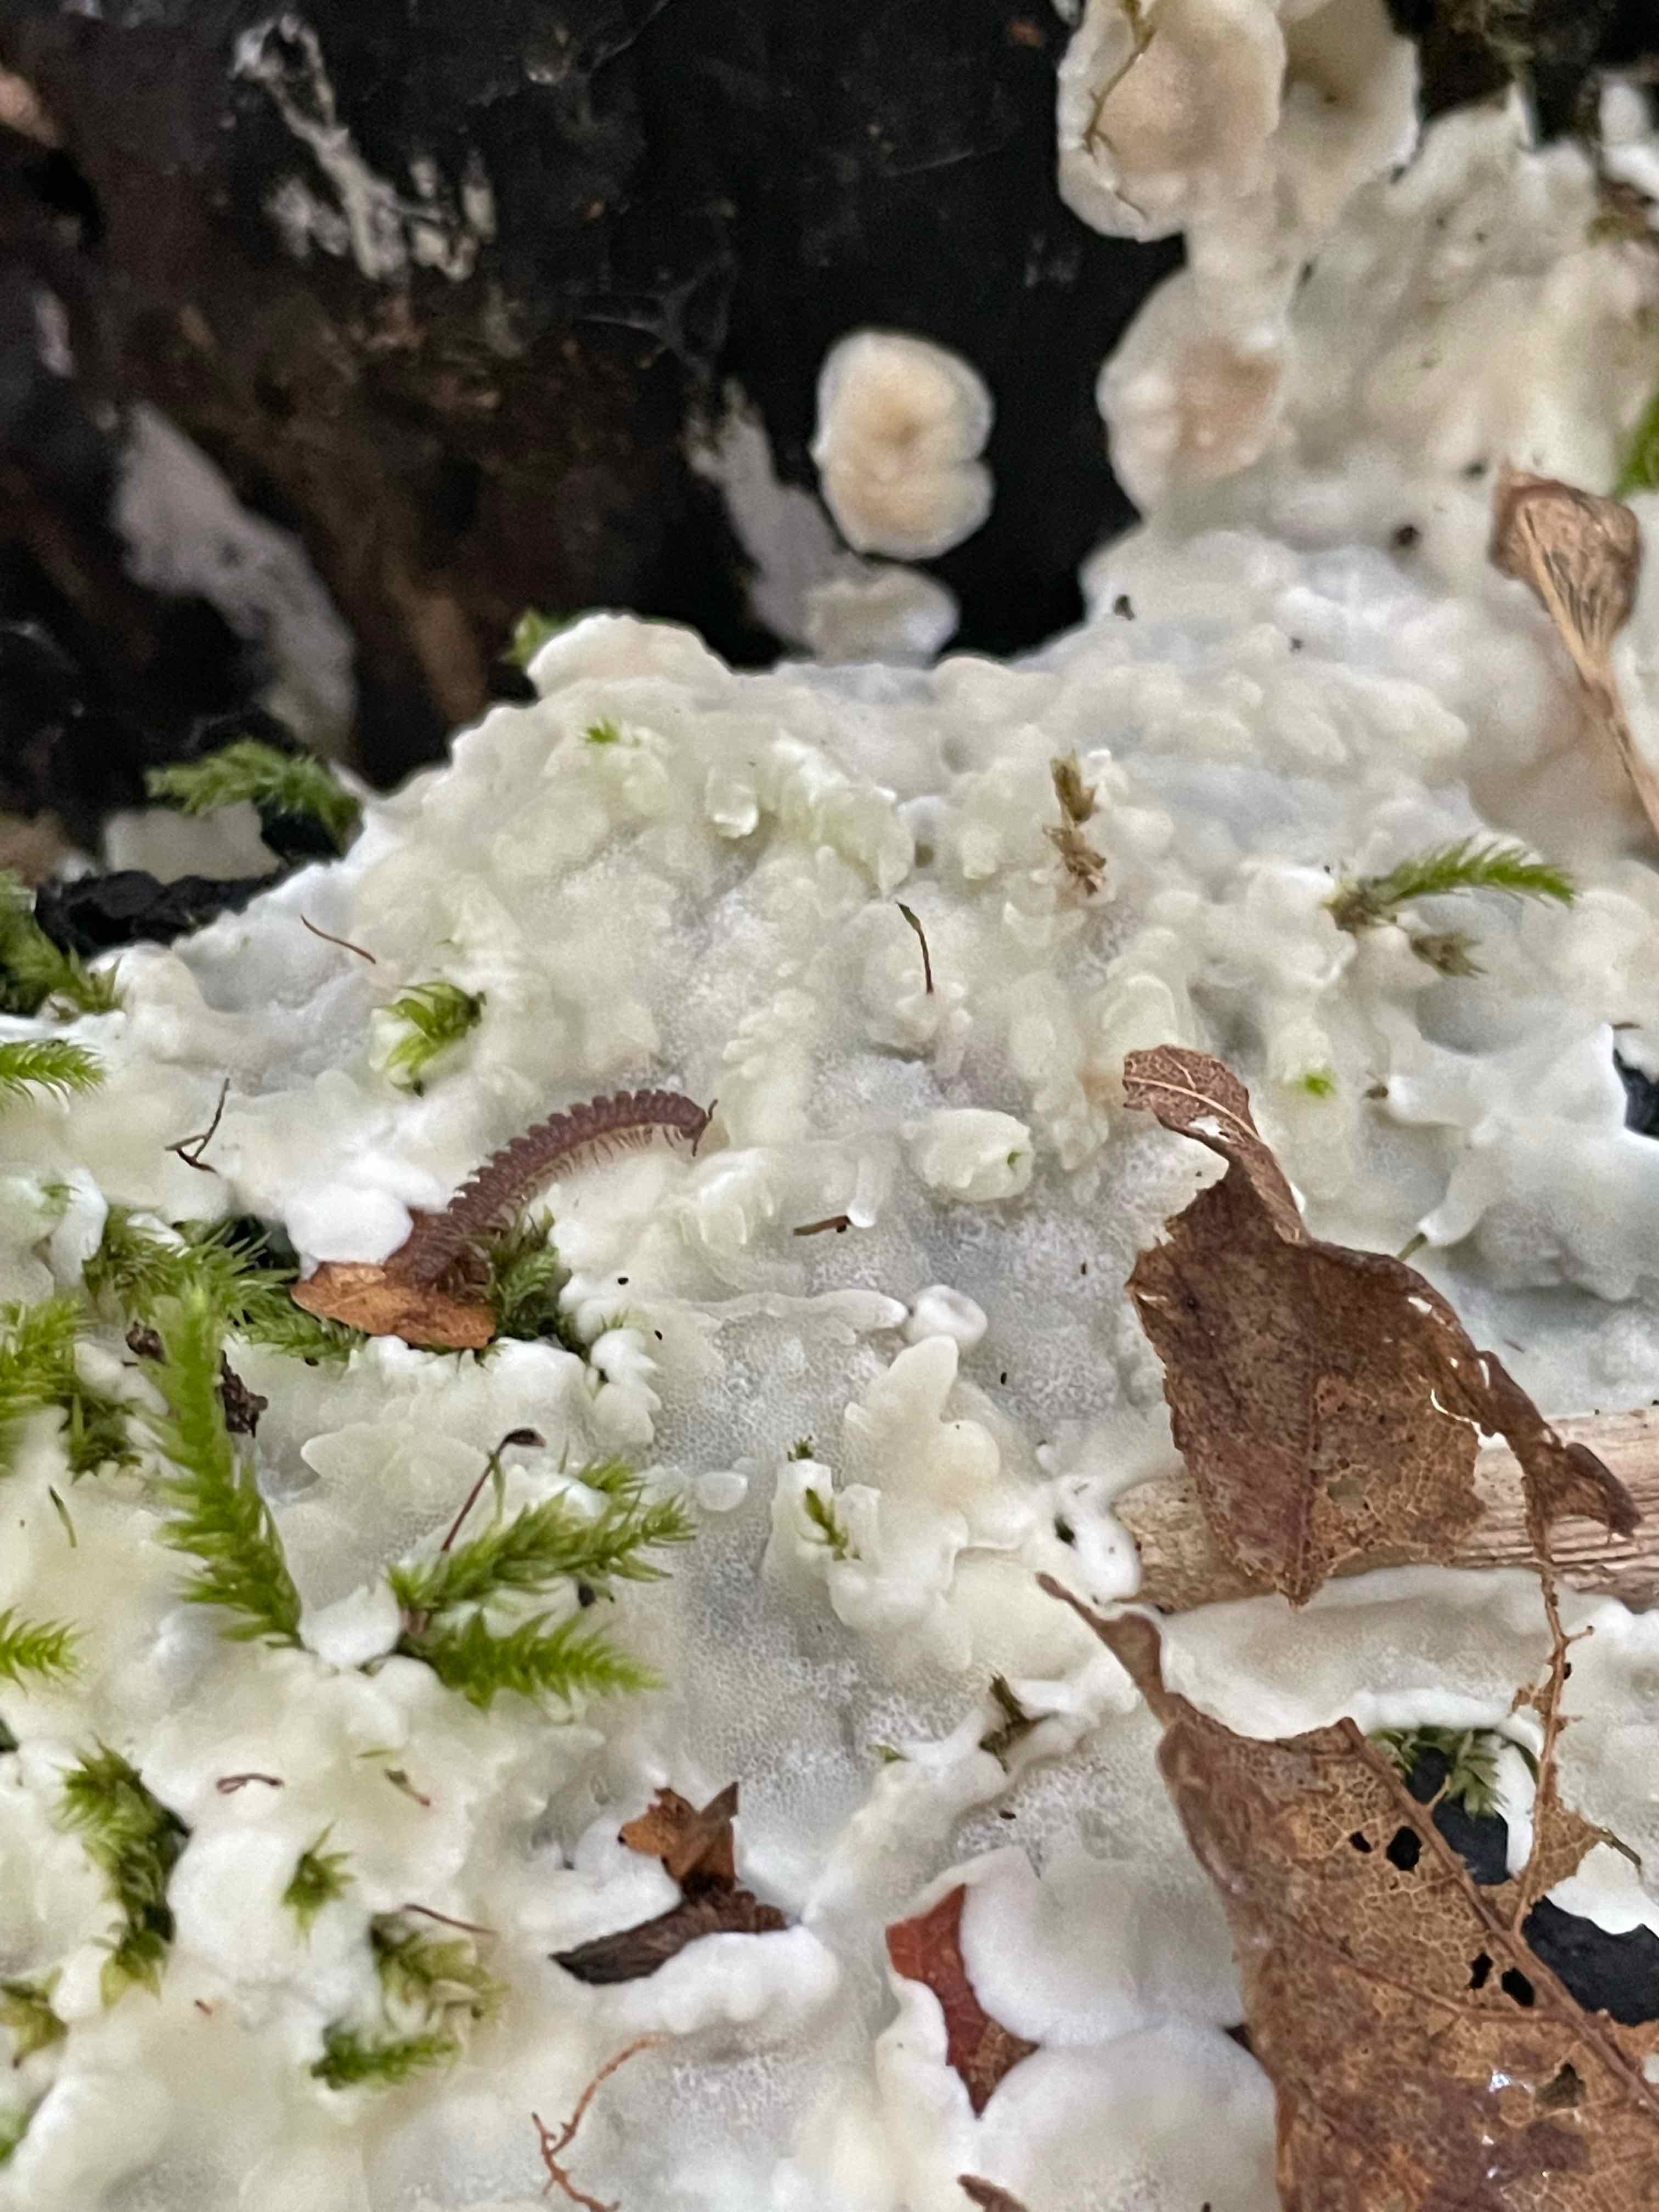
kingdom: Fungi
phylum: Basidiomycota
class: Agaricomycetes
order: Polyporales
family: Meruliaceae
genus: Physisporinus
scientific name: Physisporinus vitreus
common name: mastesvamp
